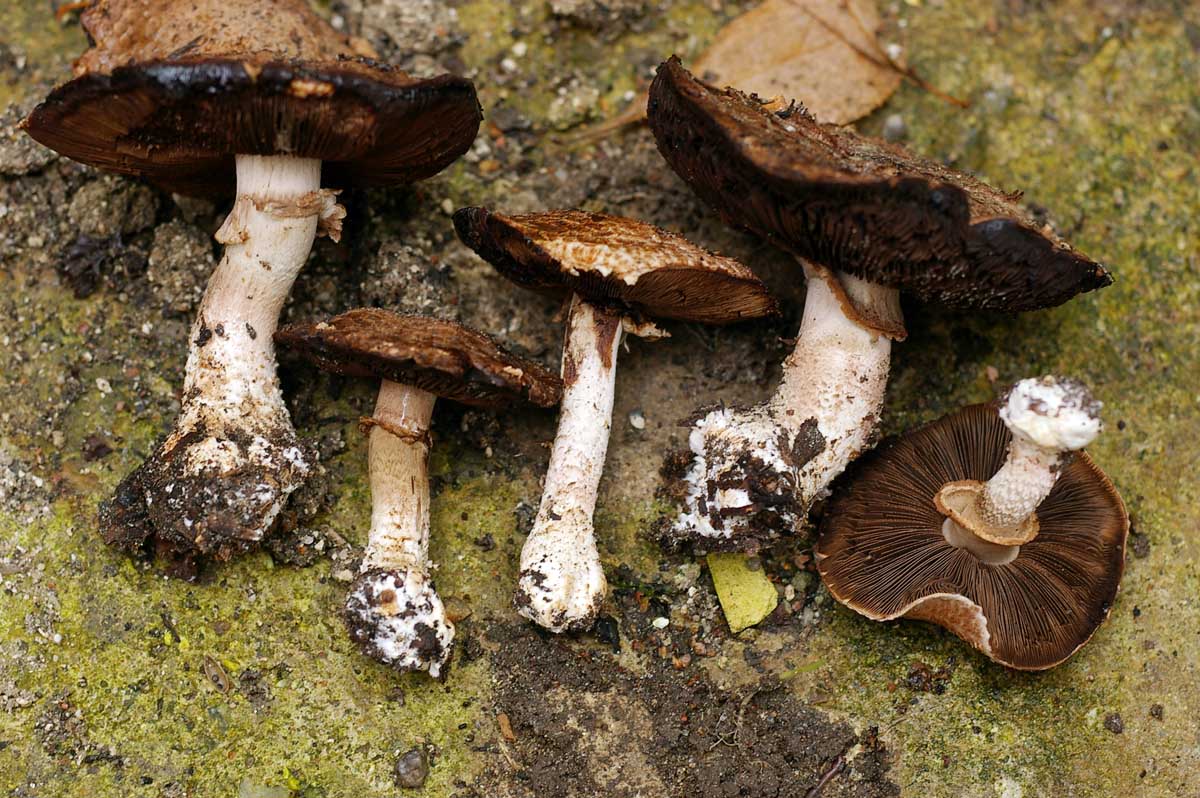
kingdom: Fungi
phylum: Basidiomycota
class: Agaricomycetes
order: Agaricales
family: Agaricaceae
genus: Agaricus
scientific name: Agaricus sylvaticus
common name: lille blod-champignon
